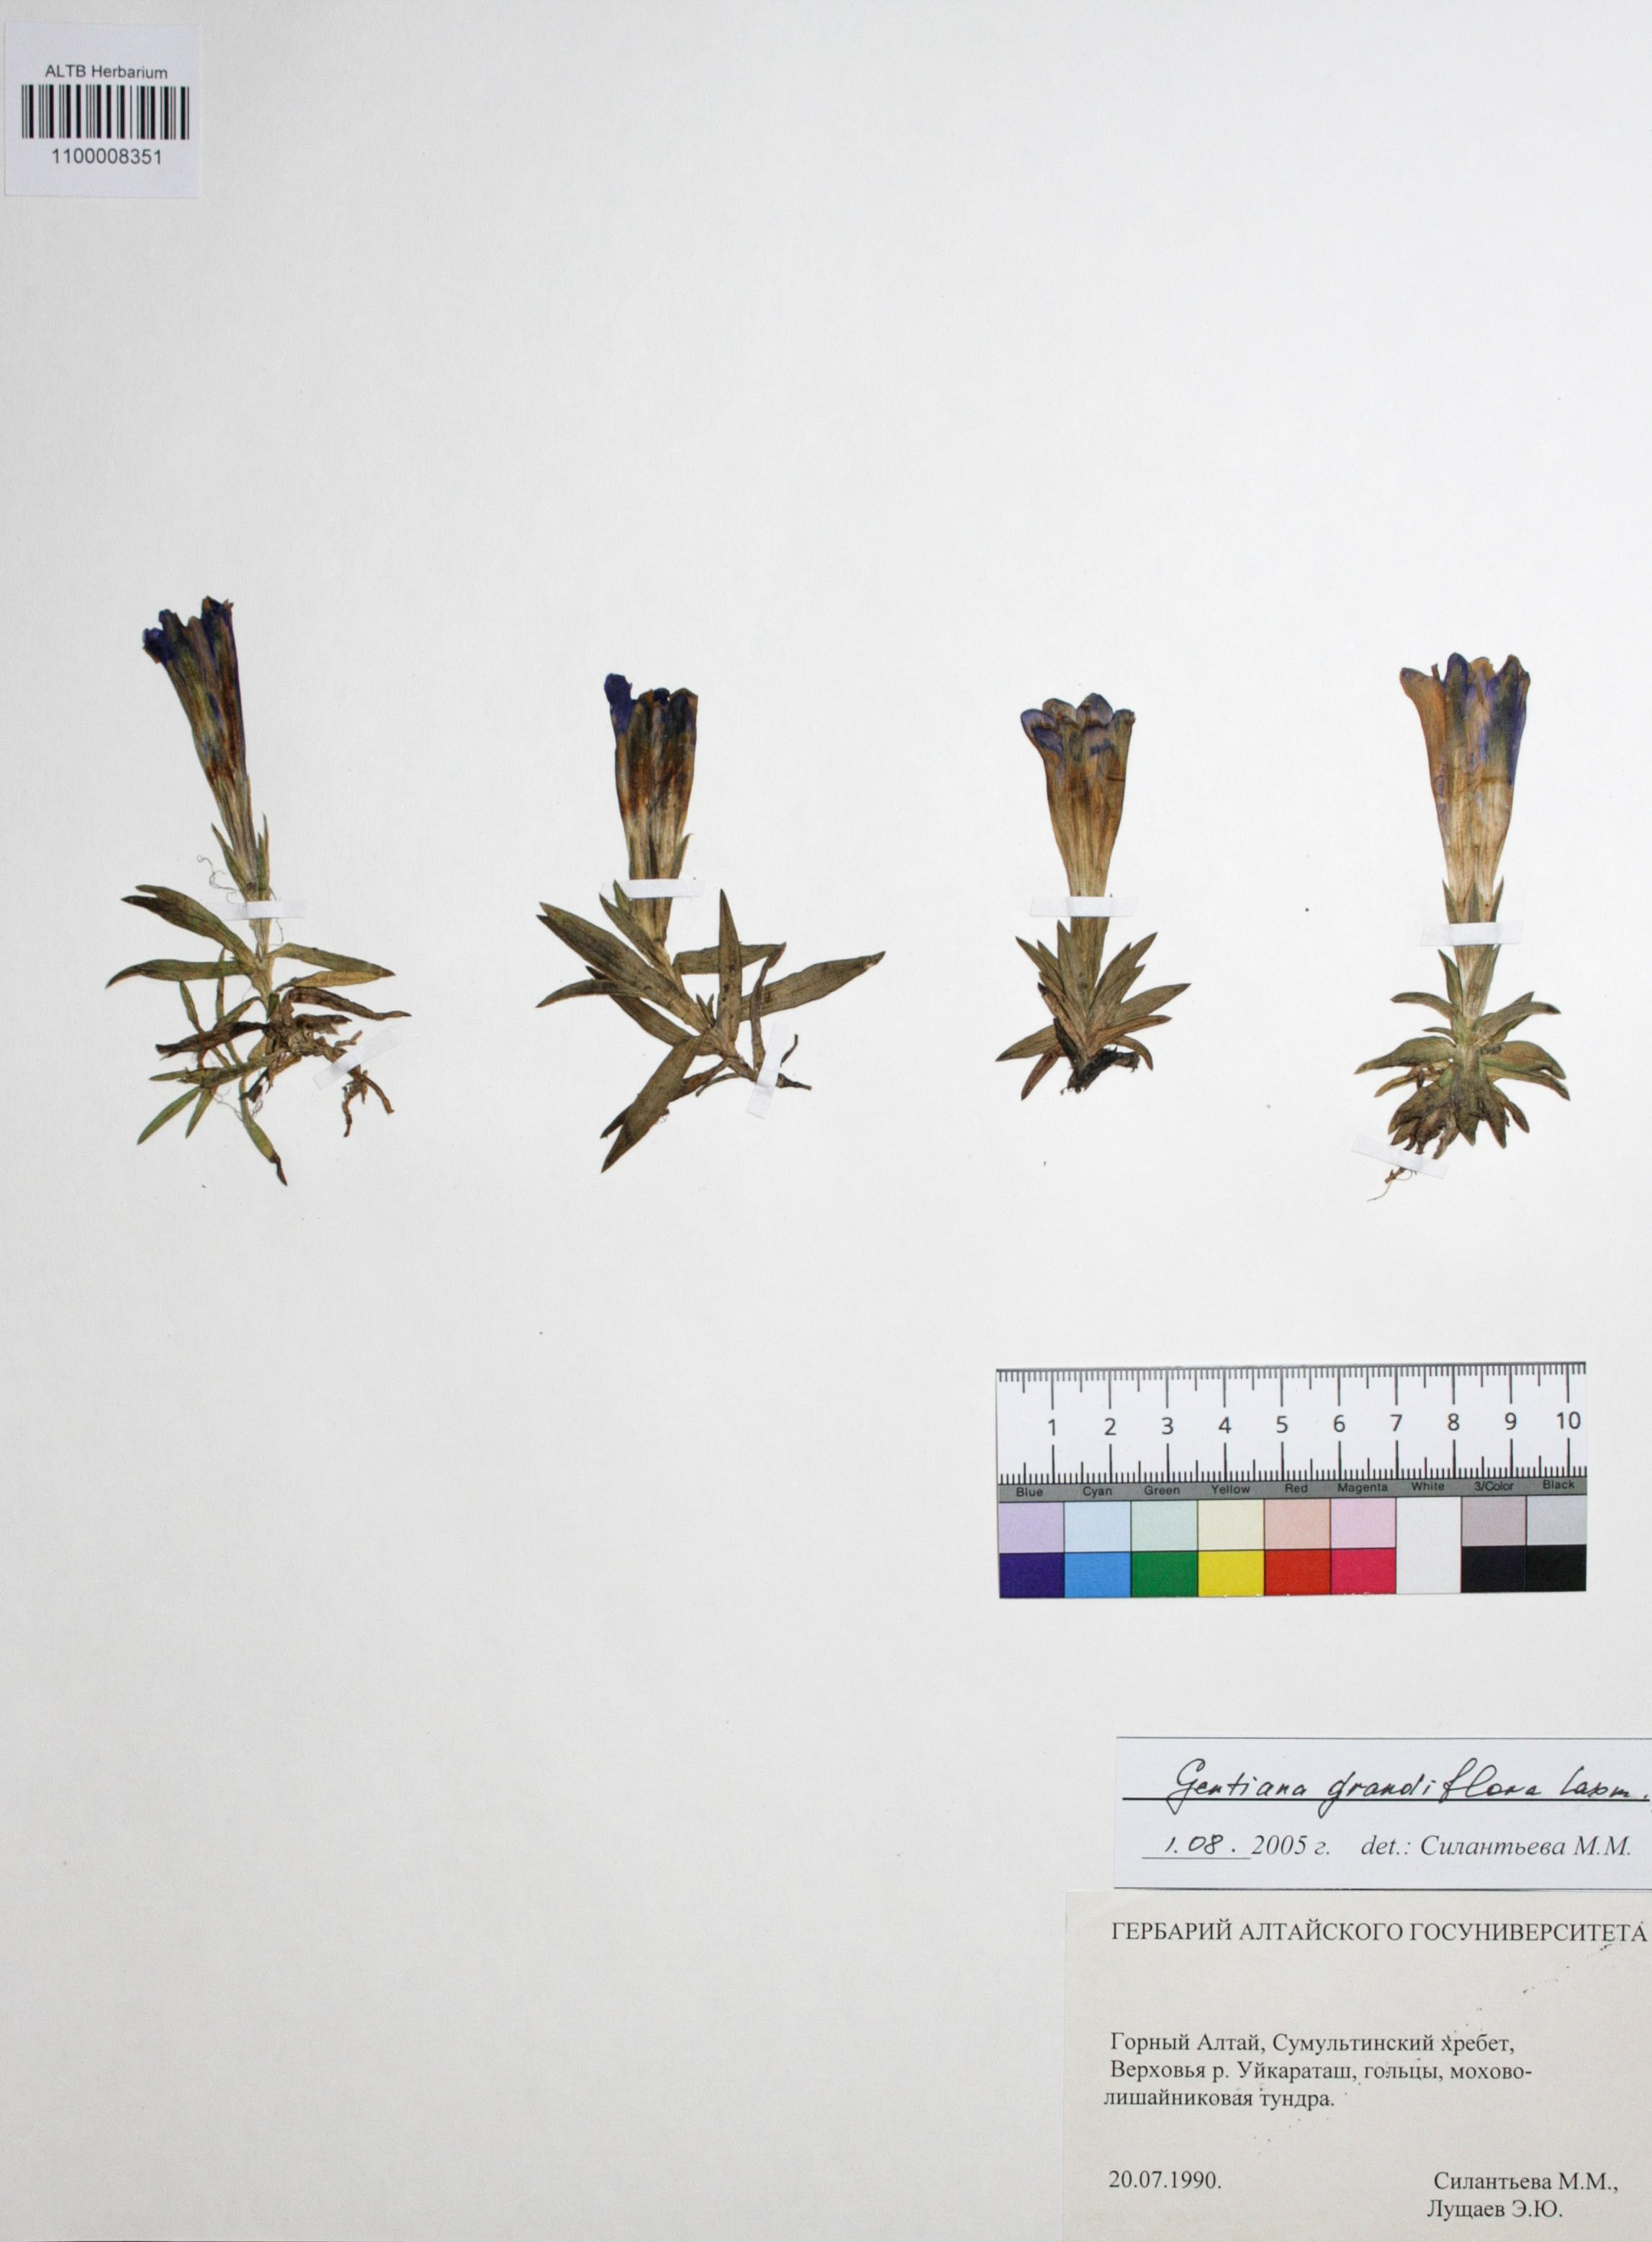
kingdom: Plantae
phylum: Tracheophyta
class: Magnoliopsida
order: Gentianales
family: Gentianaceae
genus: Gentiana
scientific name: Gentiana grandiflora
